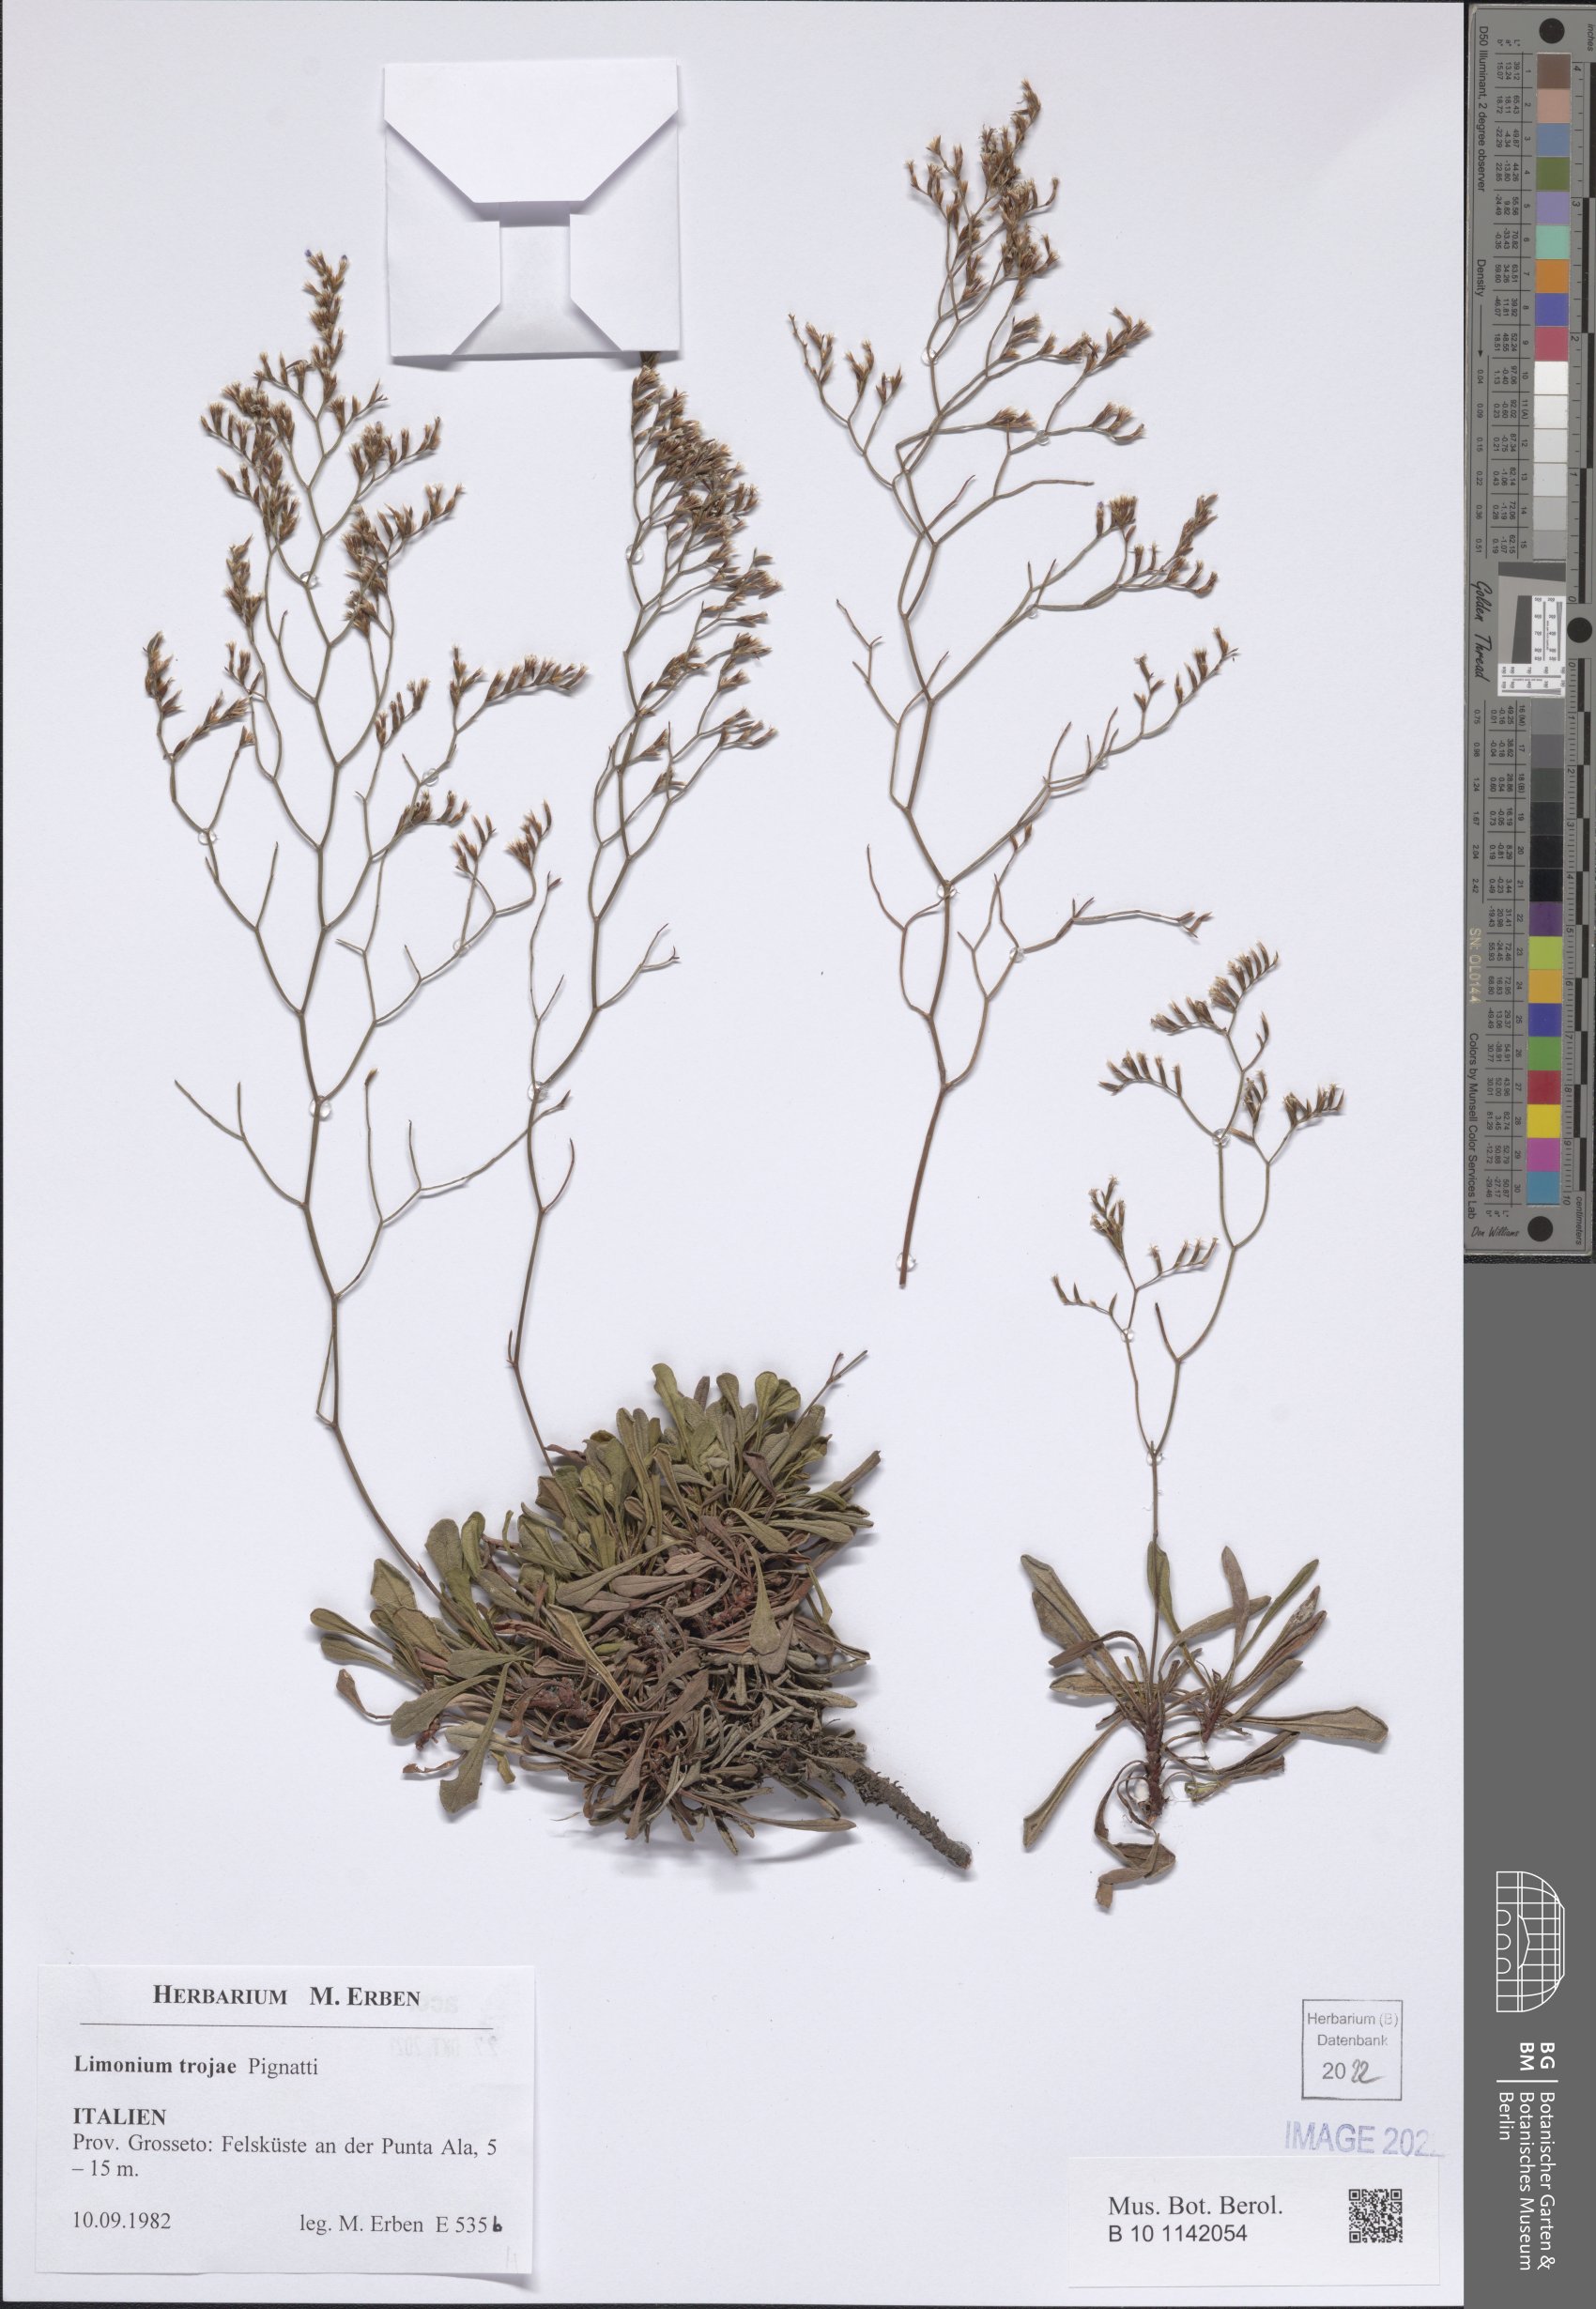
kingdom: Plantae
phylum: Tracheophyta
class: Magnoliopsida
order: Caryophyllales
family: Plumbaginaceae
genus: Limonium
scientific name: Limonium multiforme
